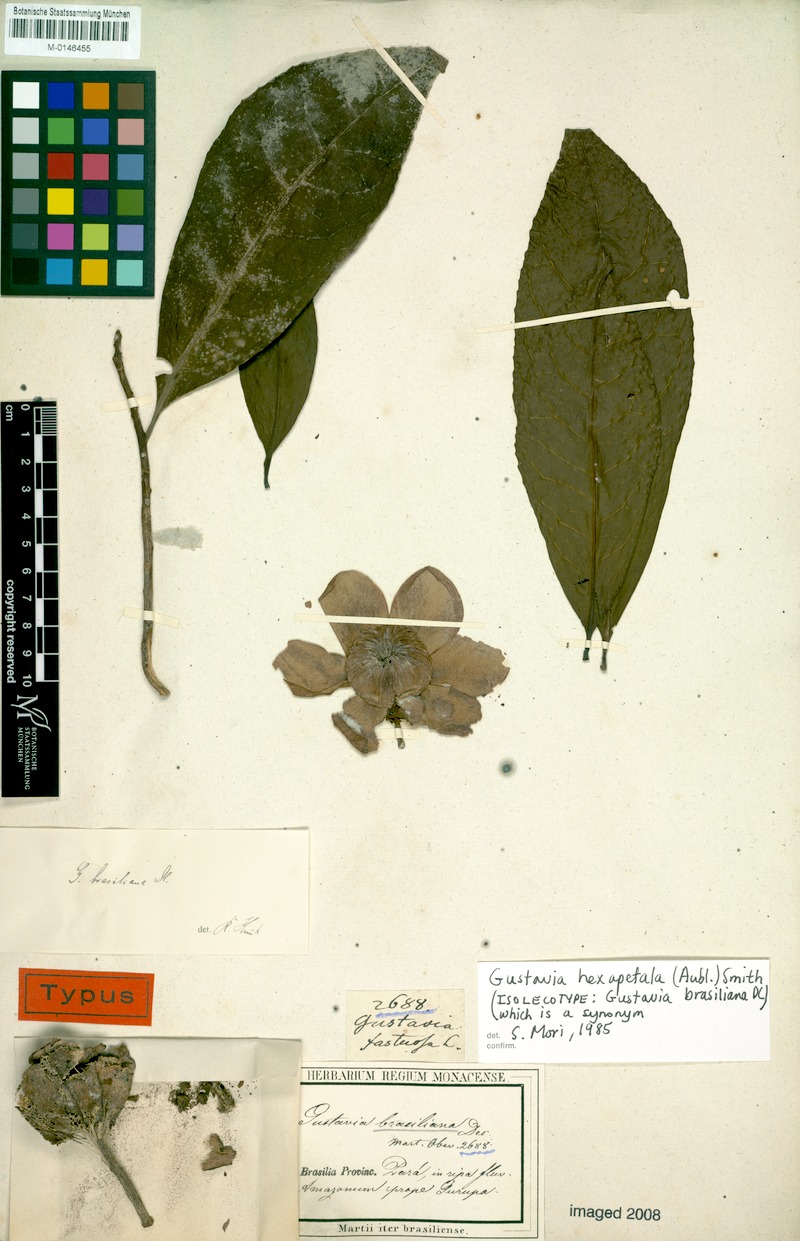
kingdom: Plantae
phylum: Tracheophyta
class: Magnoliopsida
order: Ericales
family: Lecythidaceae
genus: Gustavia
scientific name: Gustavia hexapetala
